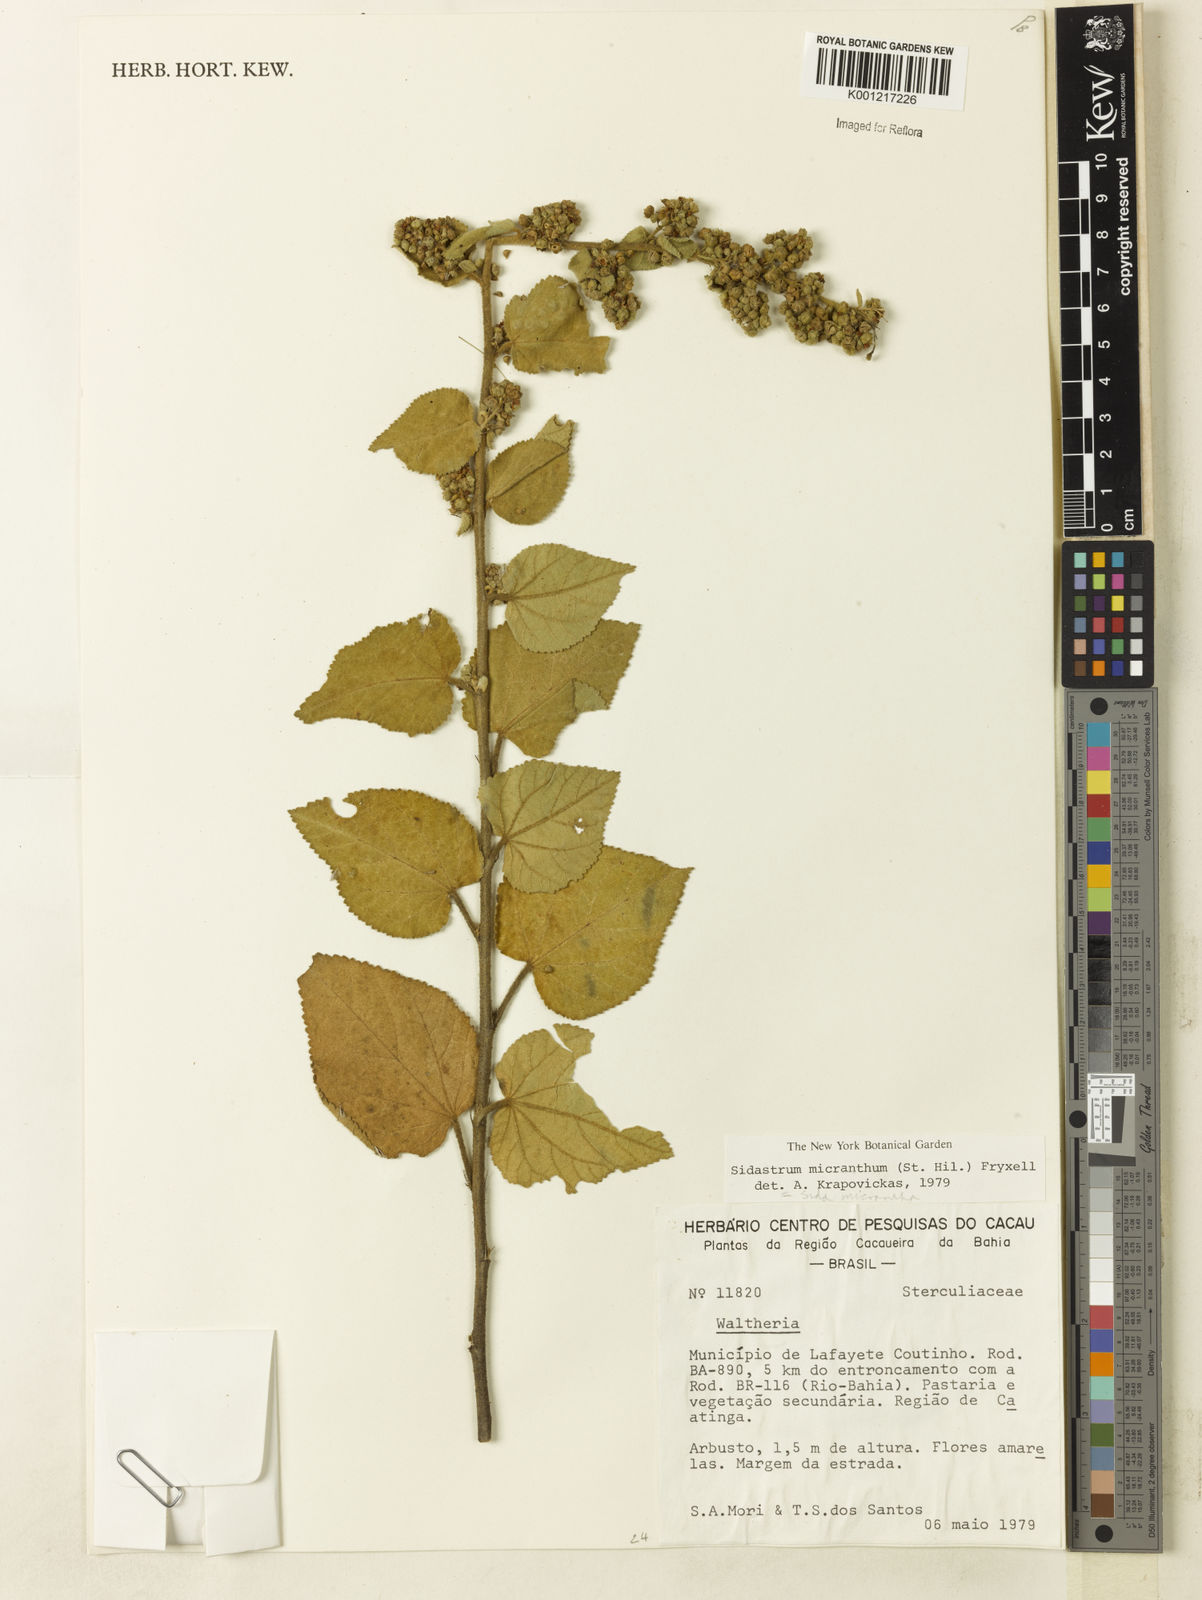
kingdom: Plantae
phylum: Tracheophyta
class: Magnoliopsida
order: Malvales
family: Malvaceae
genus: Sidastrum
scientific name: Sidastrum micranthum
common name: Dainty sandmallow
